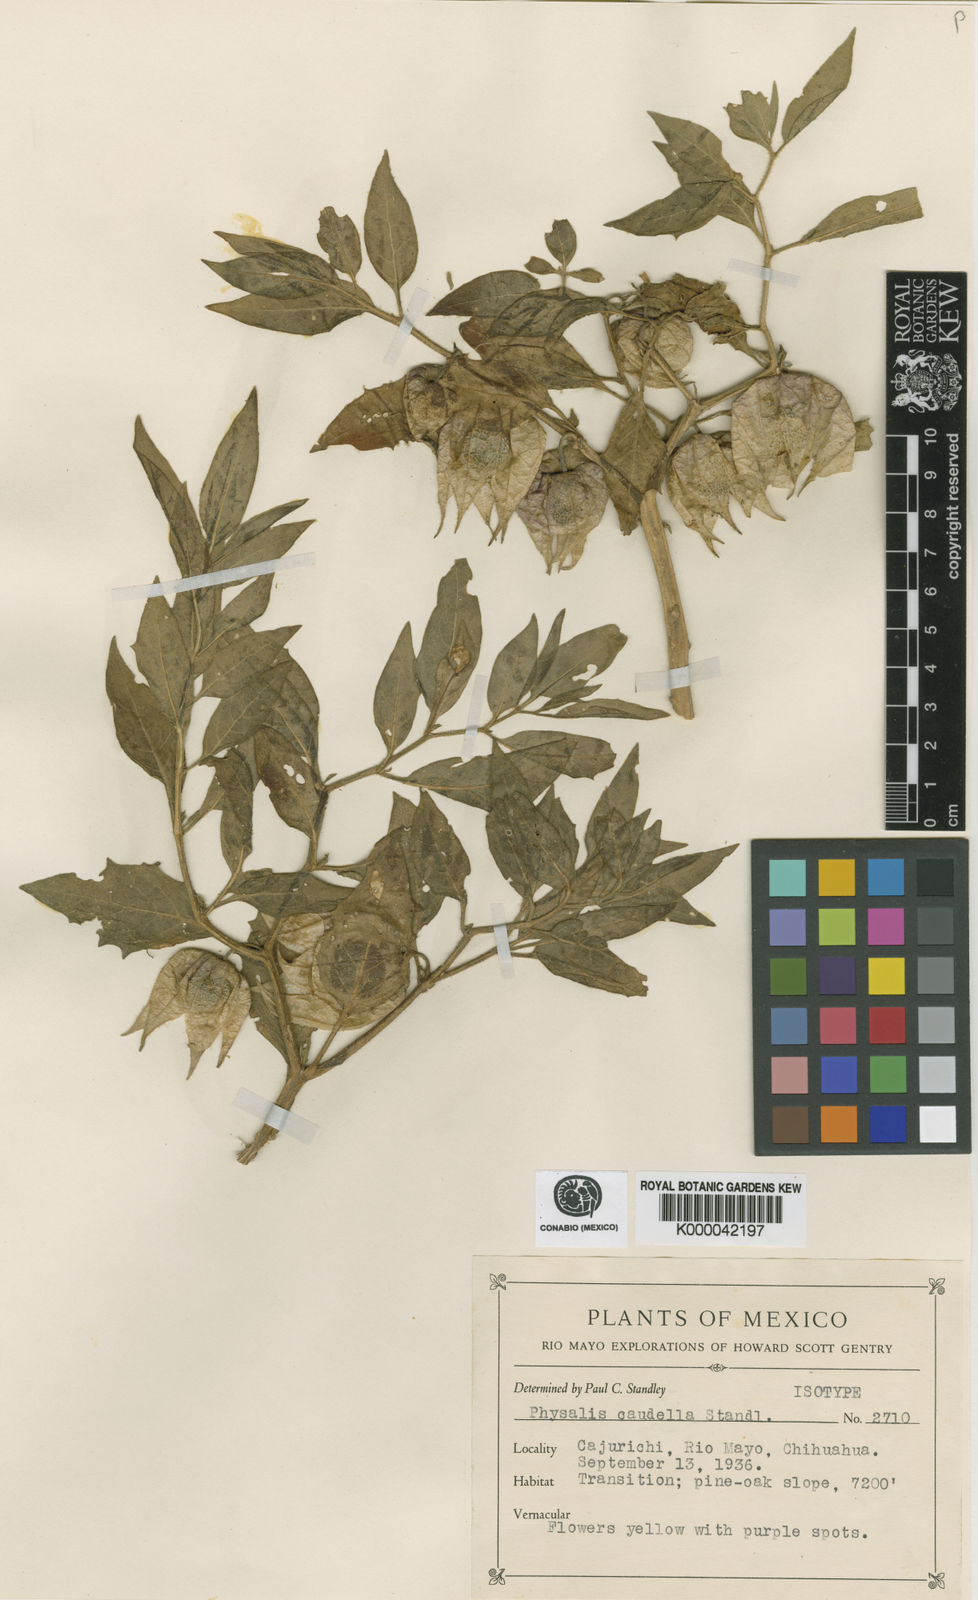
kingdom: Plantae
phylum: Tracheophyta
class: Magnoliopsida
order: Solanales
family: Solanaceae
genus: Physalis
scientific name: Physalis caudella
